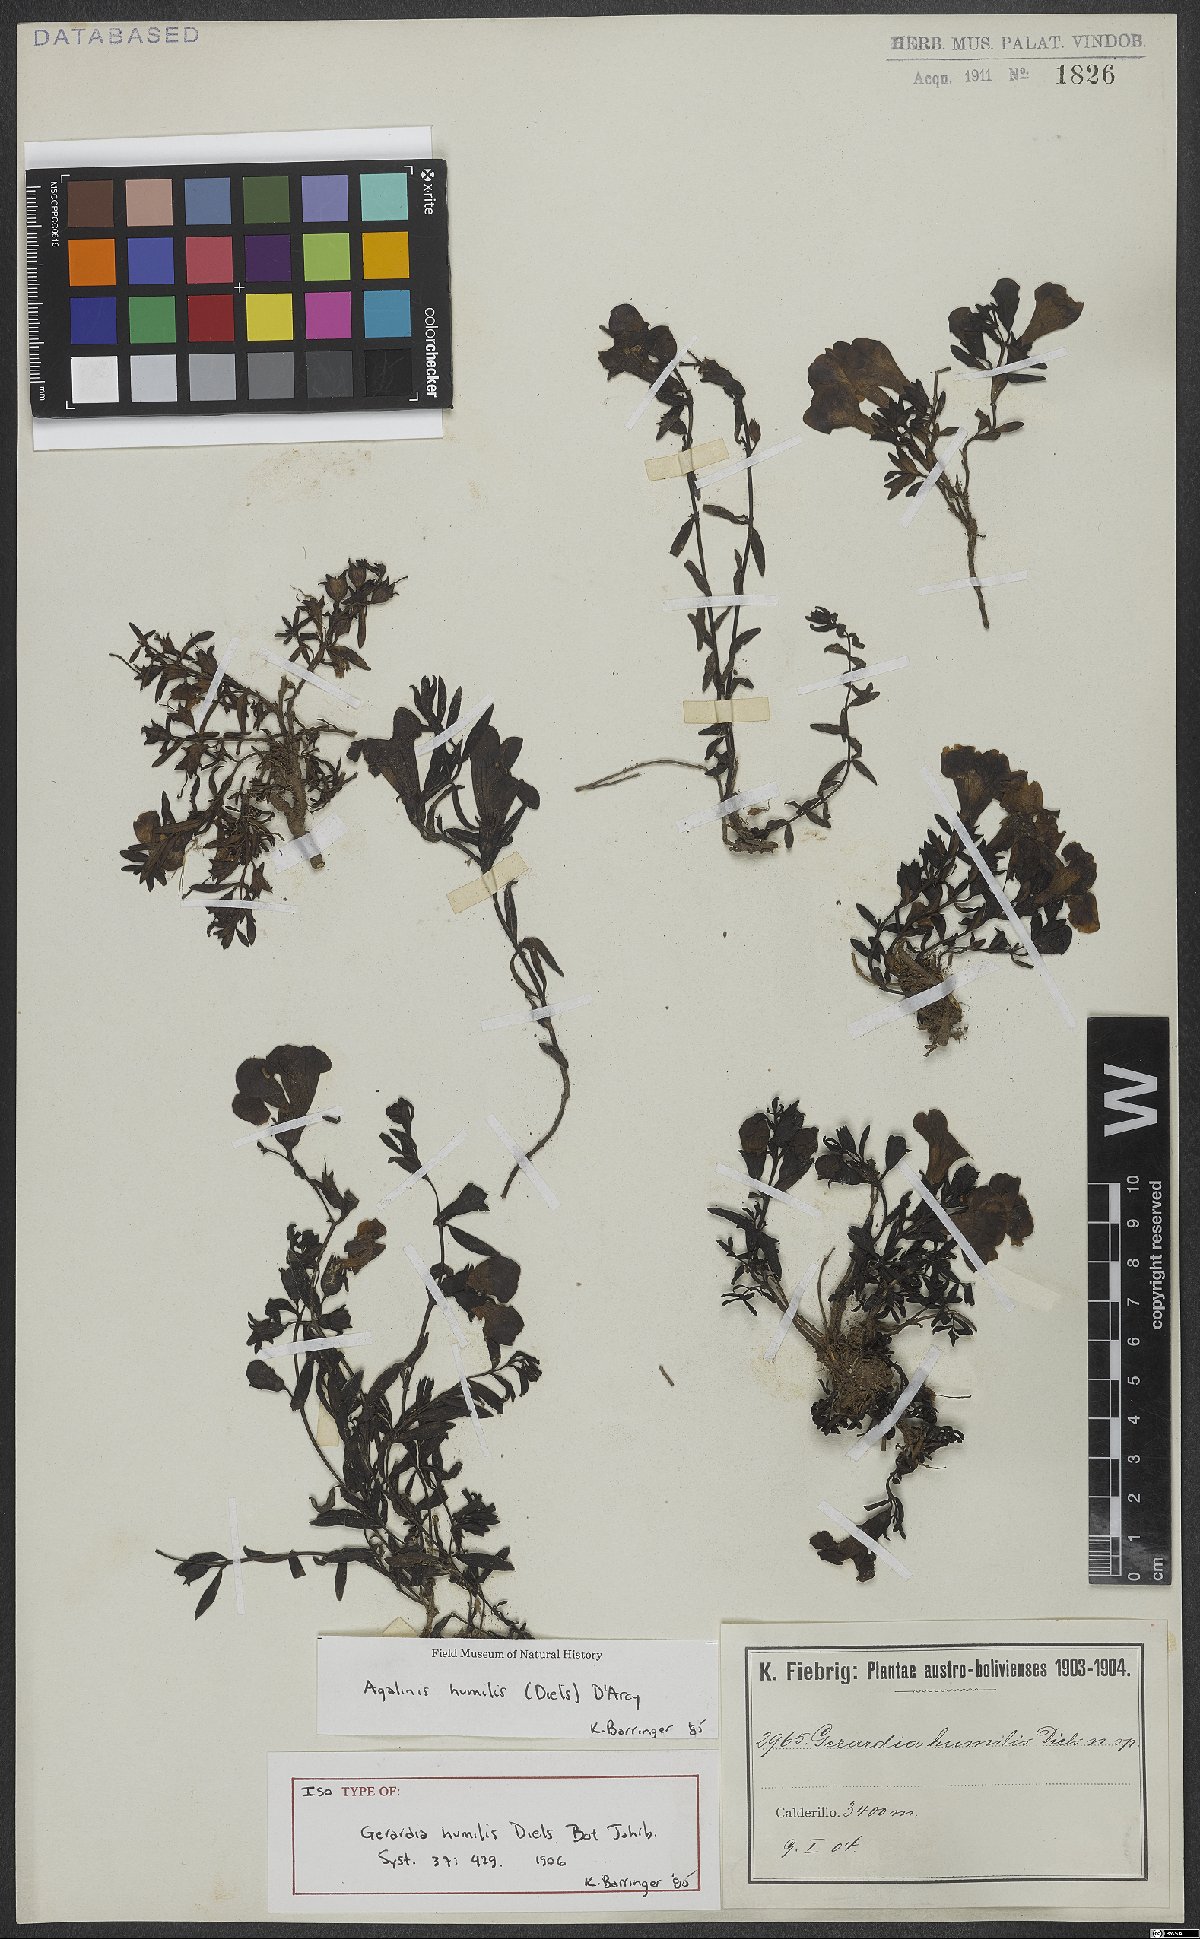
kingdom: Plantae
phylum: Tracheophyta
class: Magnoliopsida
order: Lamiales
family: Scrophulariaceae
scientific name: Scrophulariaceae
